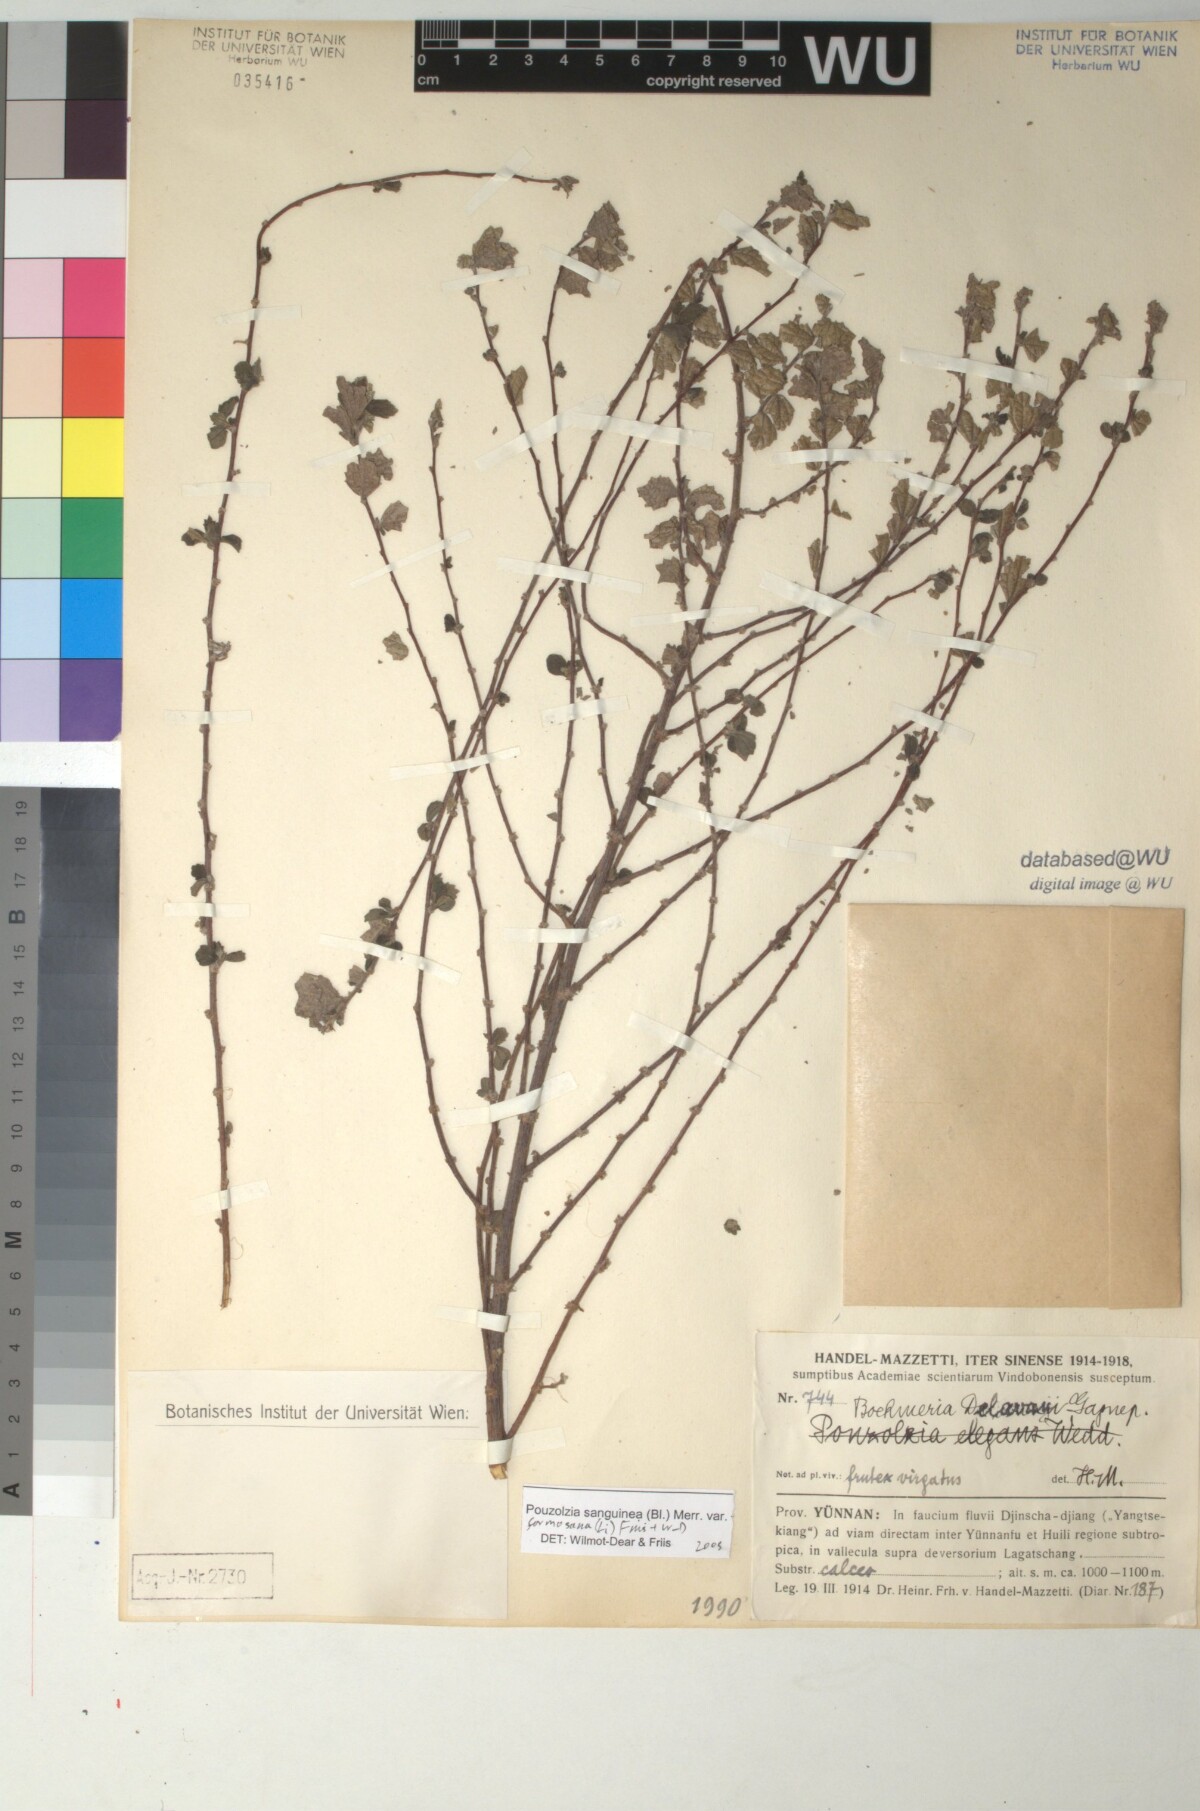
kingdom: Plantae
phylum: Tracheophyta
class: Magnoliopsida
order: Rosales
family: Urticaceae
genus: Pouzolzia
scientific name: Pouzolzia sanguinea
